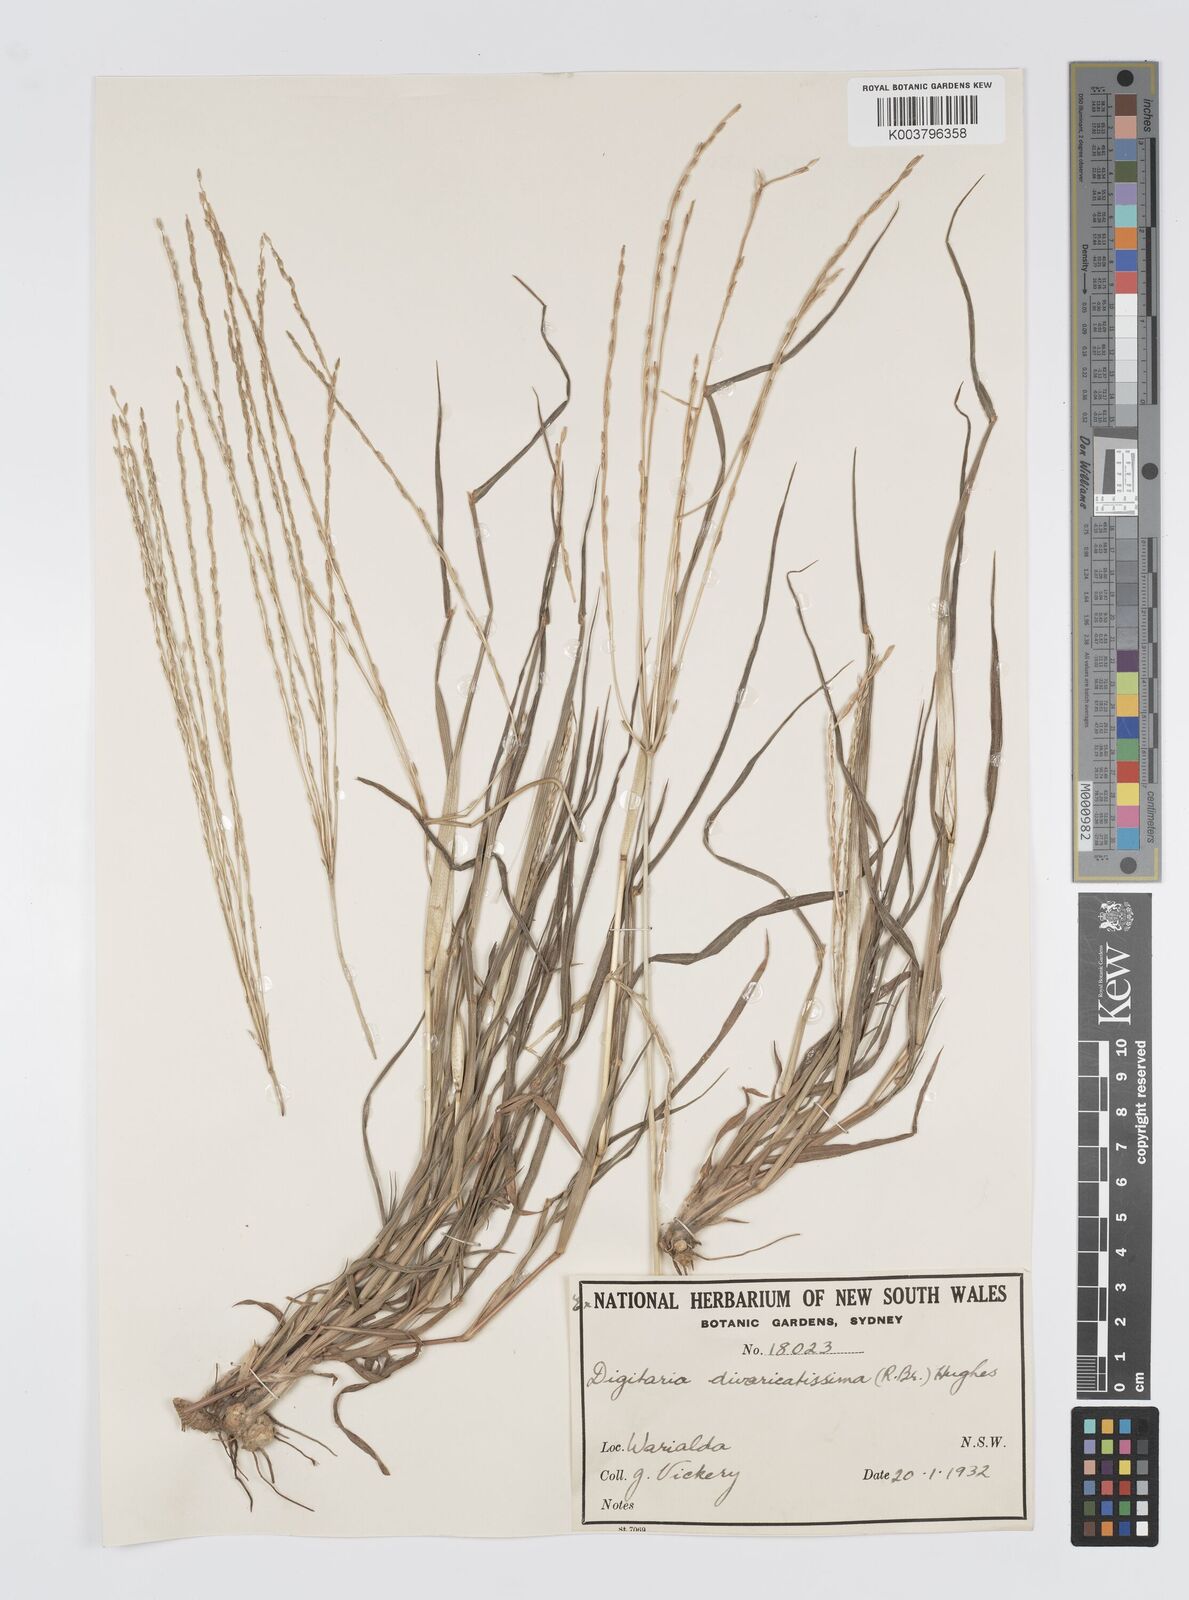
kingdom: Plantae
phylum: Tracheophyta
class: Liliopsida
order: Poales
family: Poaceae
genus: Digitaria
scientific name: Digitaria divaricatissima
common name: Crabgrass
